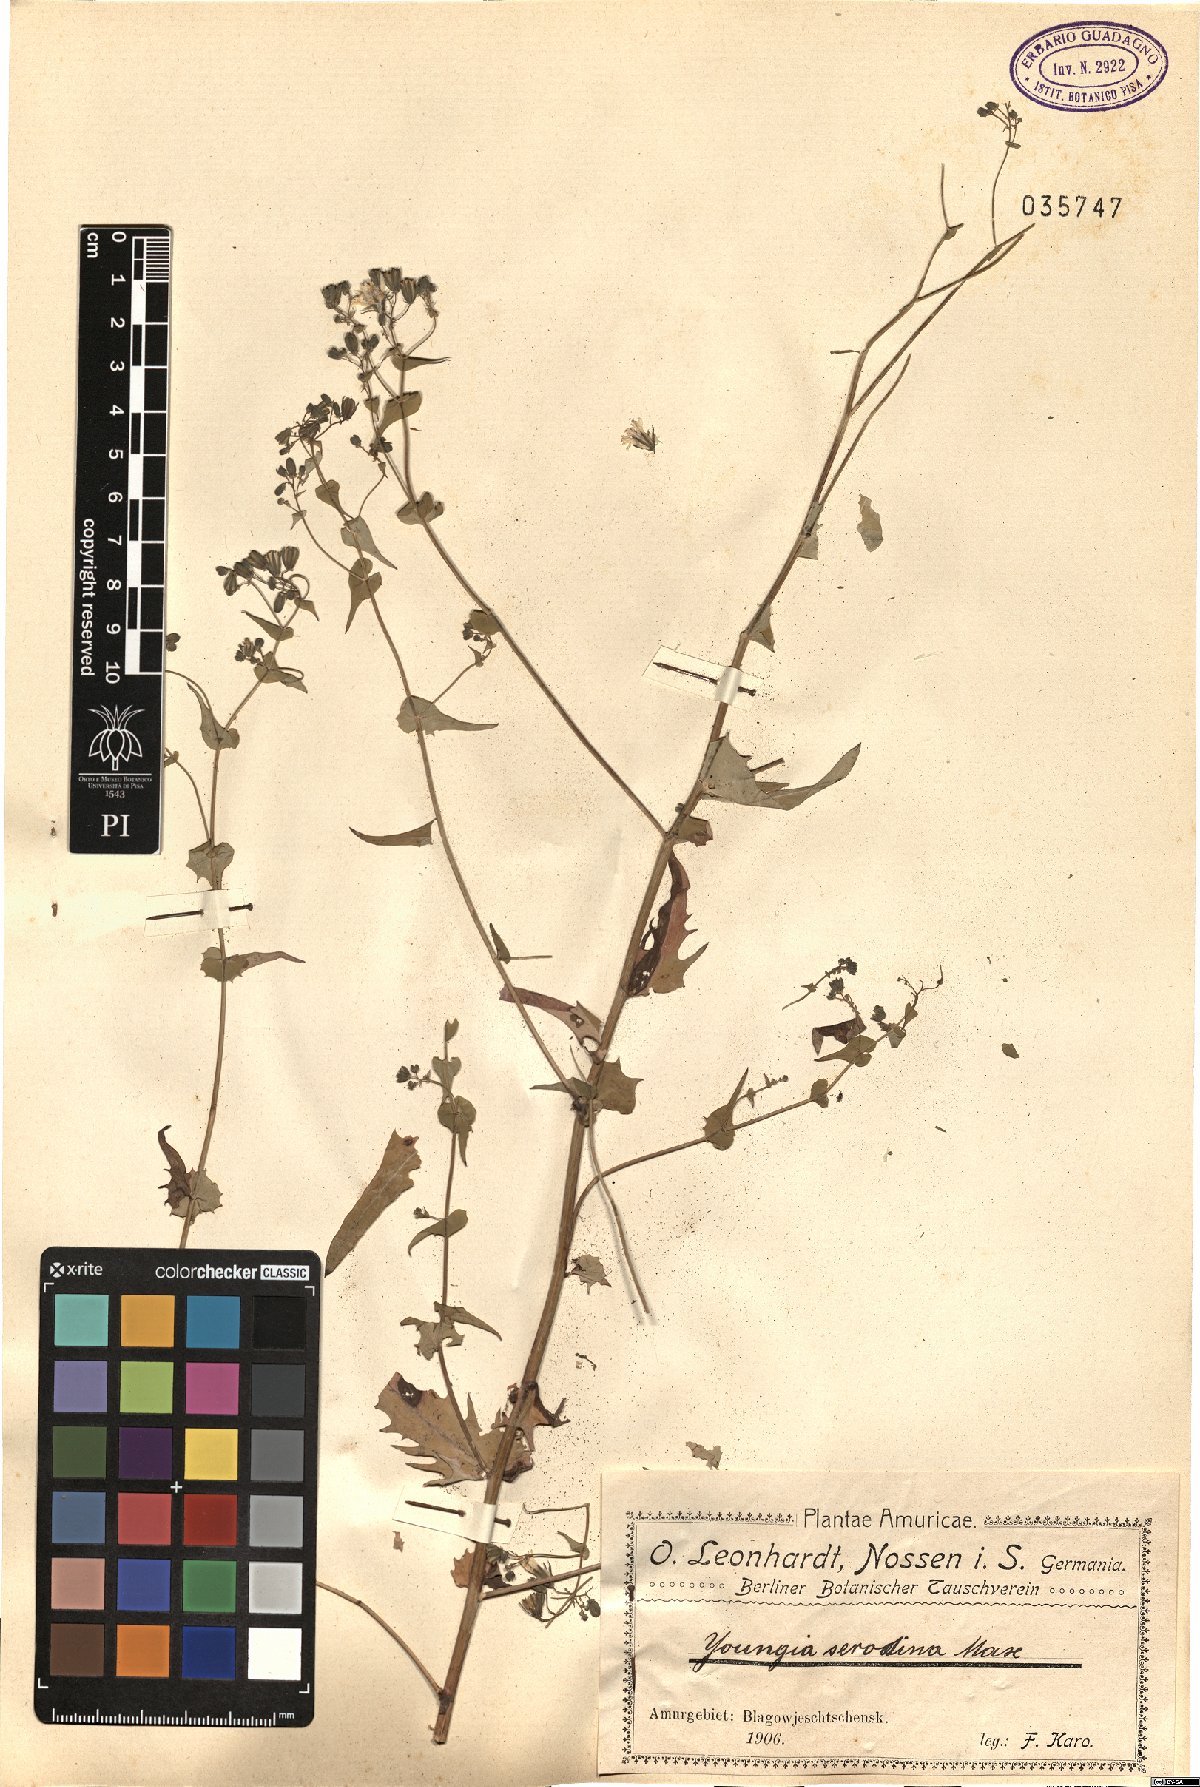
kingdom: Plantae
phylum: Tracheophyta
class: Magnoliopsida
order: Asterales
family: Asteraceae
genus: Crepidiastrum
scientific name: Crepidiastrum sonchifolium
